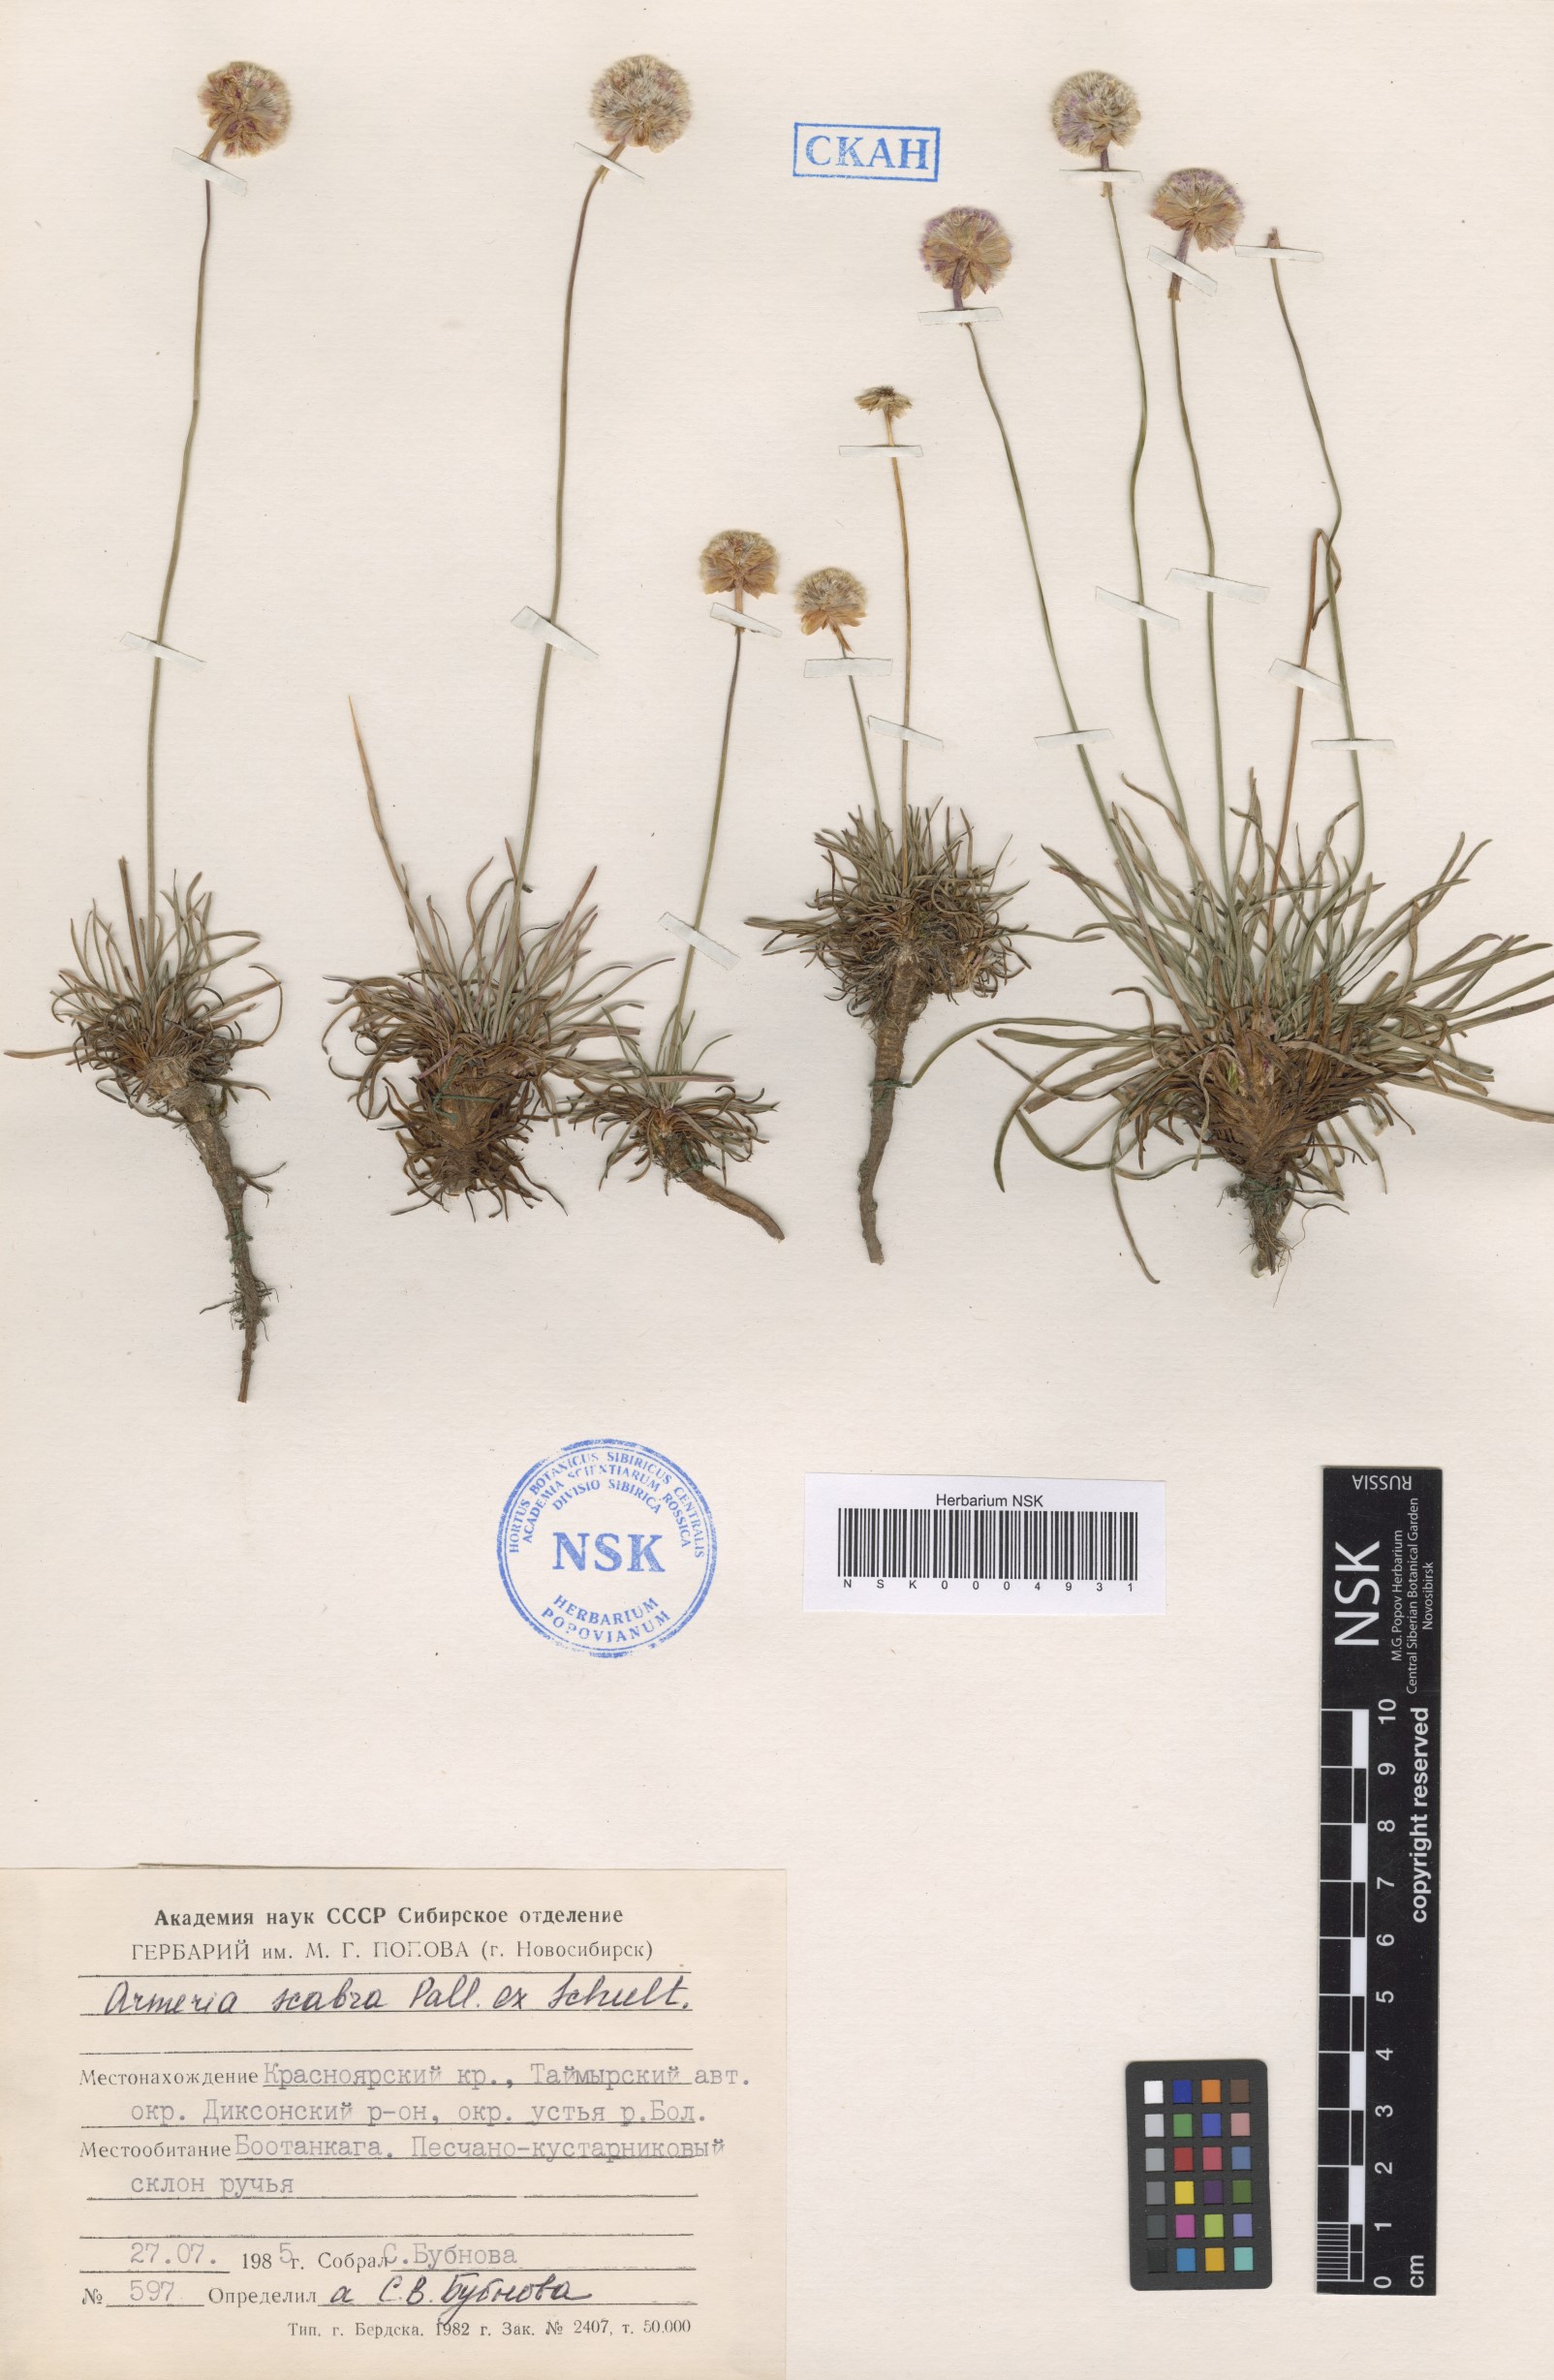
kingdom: Plantae
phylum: Tracheophyta
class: Magnoliopsida
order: Caryophyllales
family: Plumbaginaceae
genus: Armeria
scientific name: Armeria maritima
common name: Thrift
